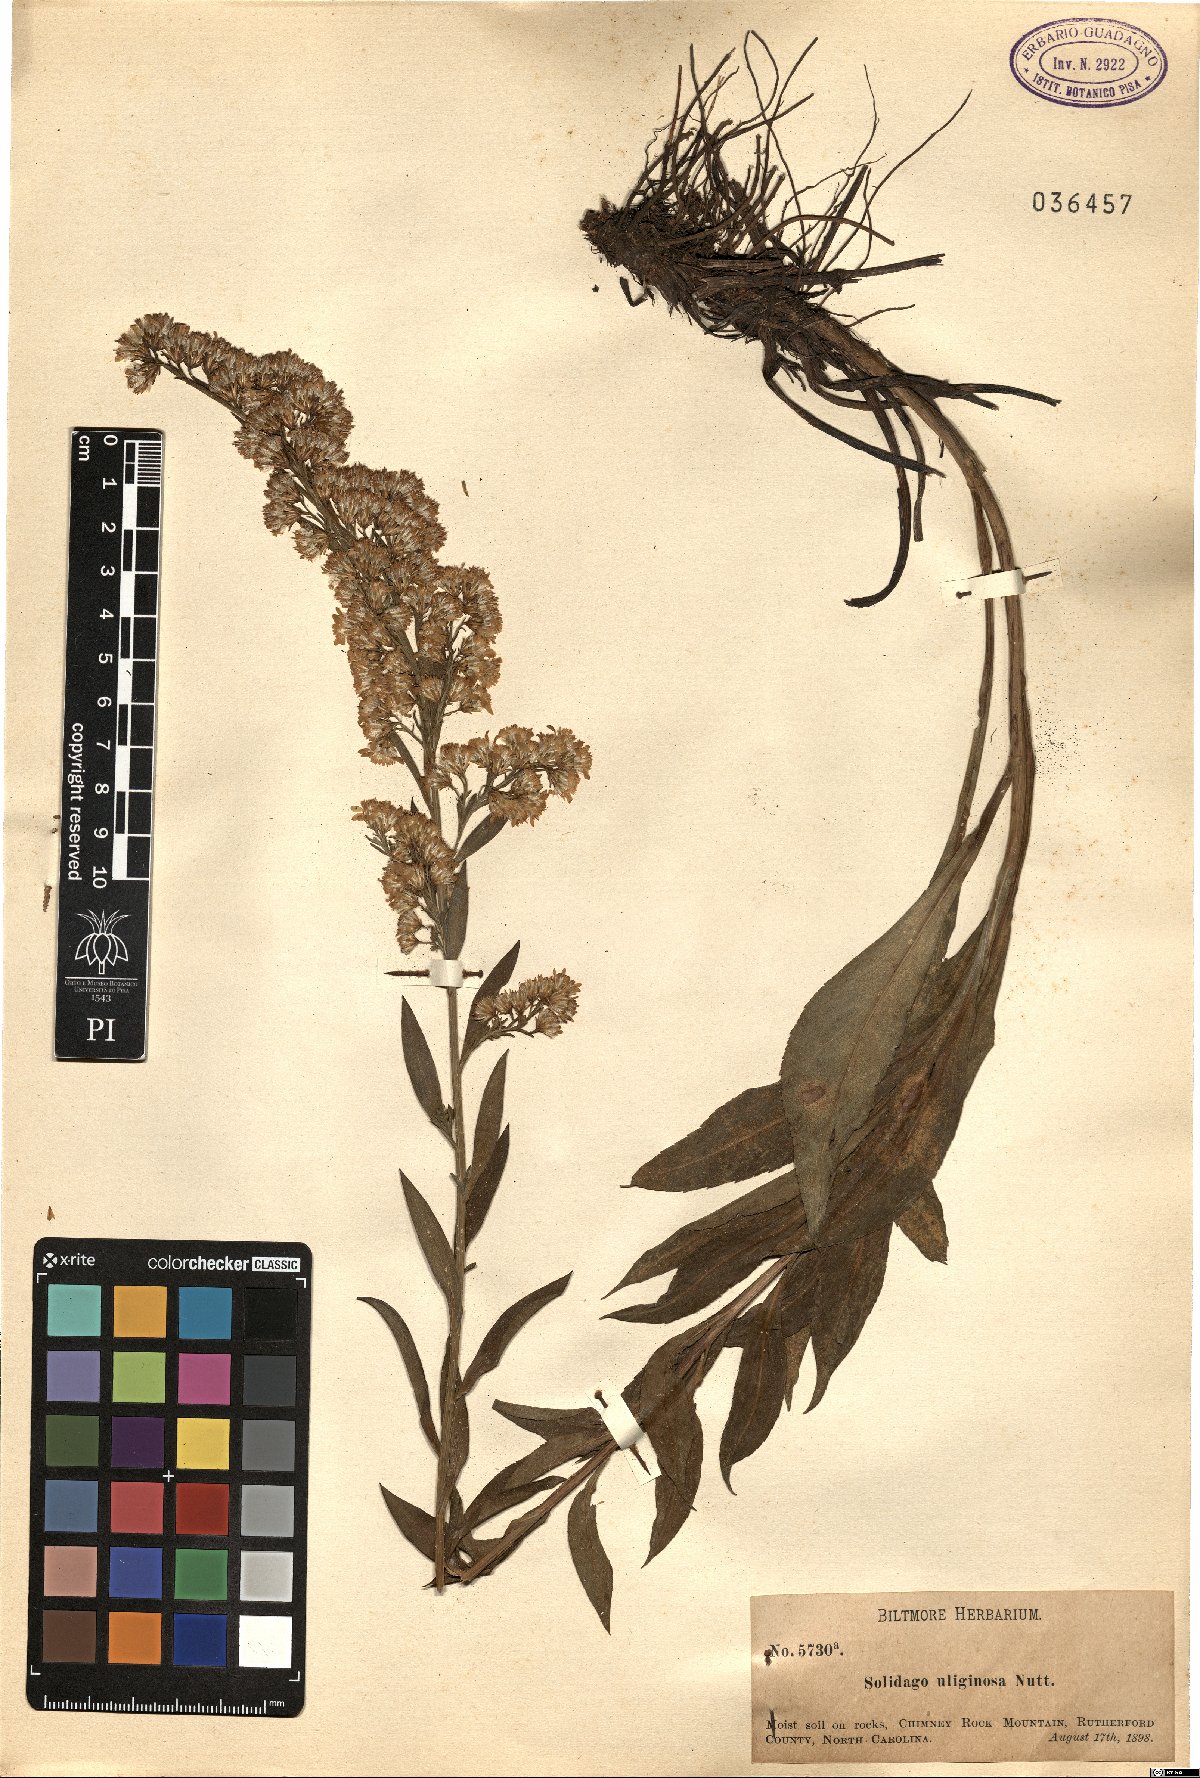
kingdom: Plantae
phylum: Tracheophyta
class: Magnoliopsida
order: Asterales
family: Asteraceae
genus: Solidago
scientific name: Solidago uliginosa
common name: Bog goldenrod
